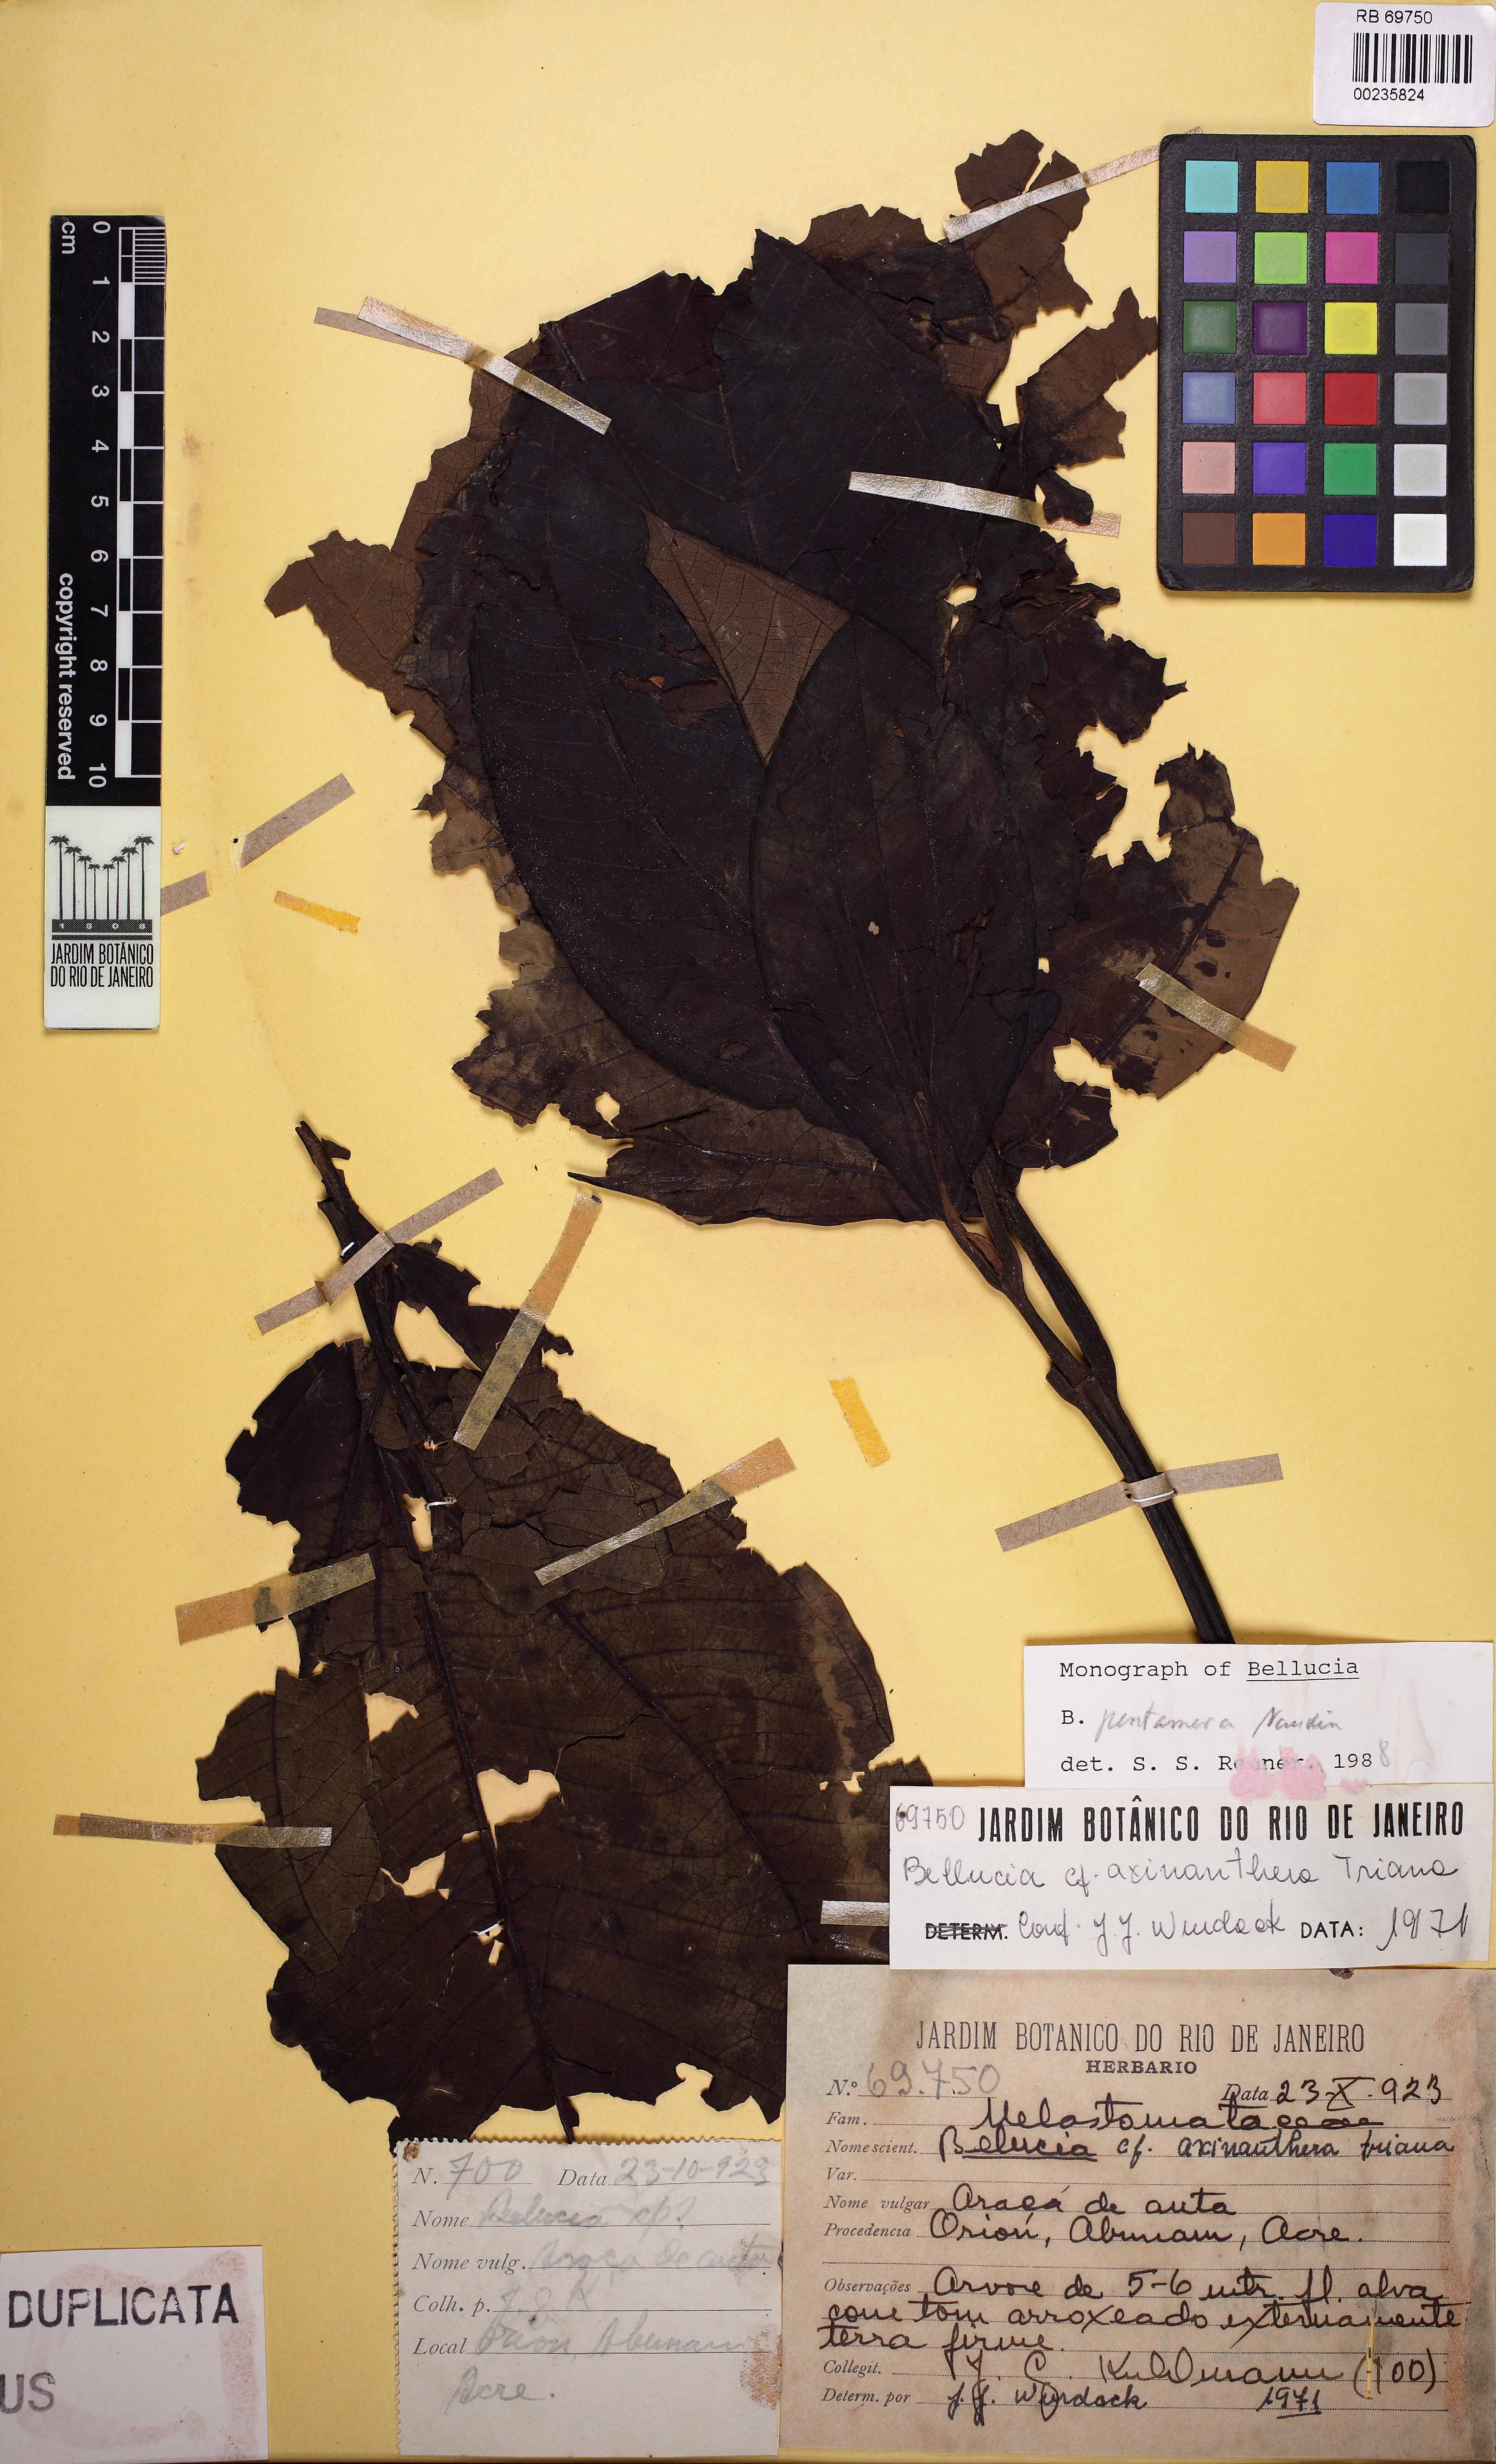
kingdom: Plantae
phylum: Tracheophyta
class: Magnoliopsida
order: Myrtales
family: Melastomataceae
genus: Bellucia
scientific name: Bellucia pentamera
